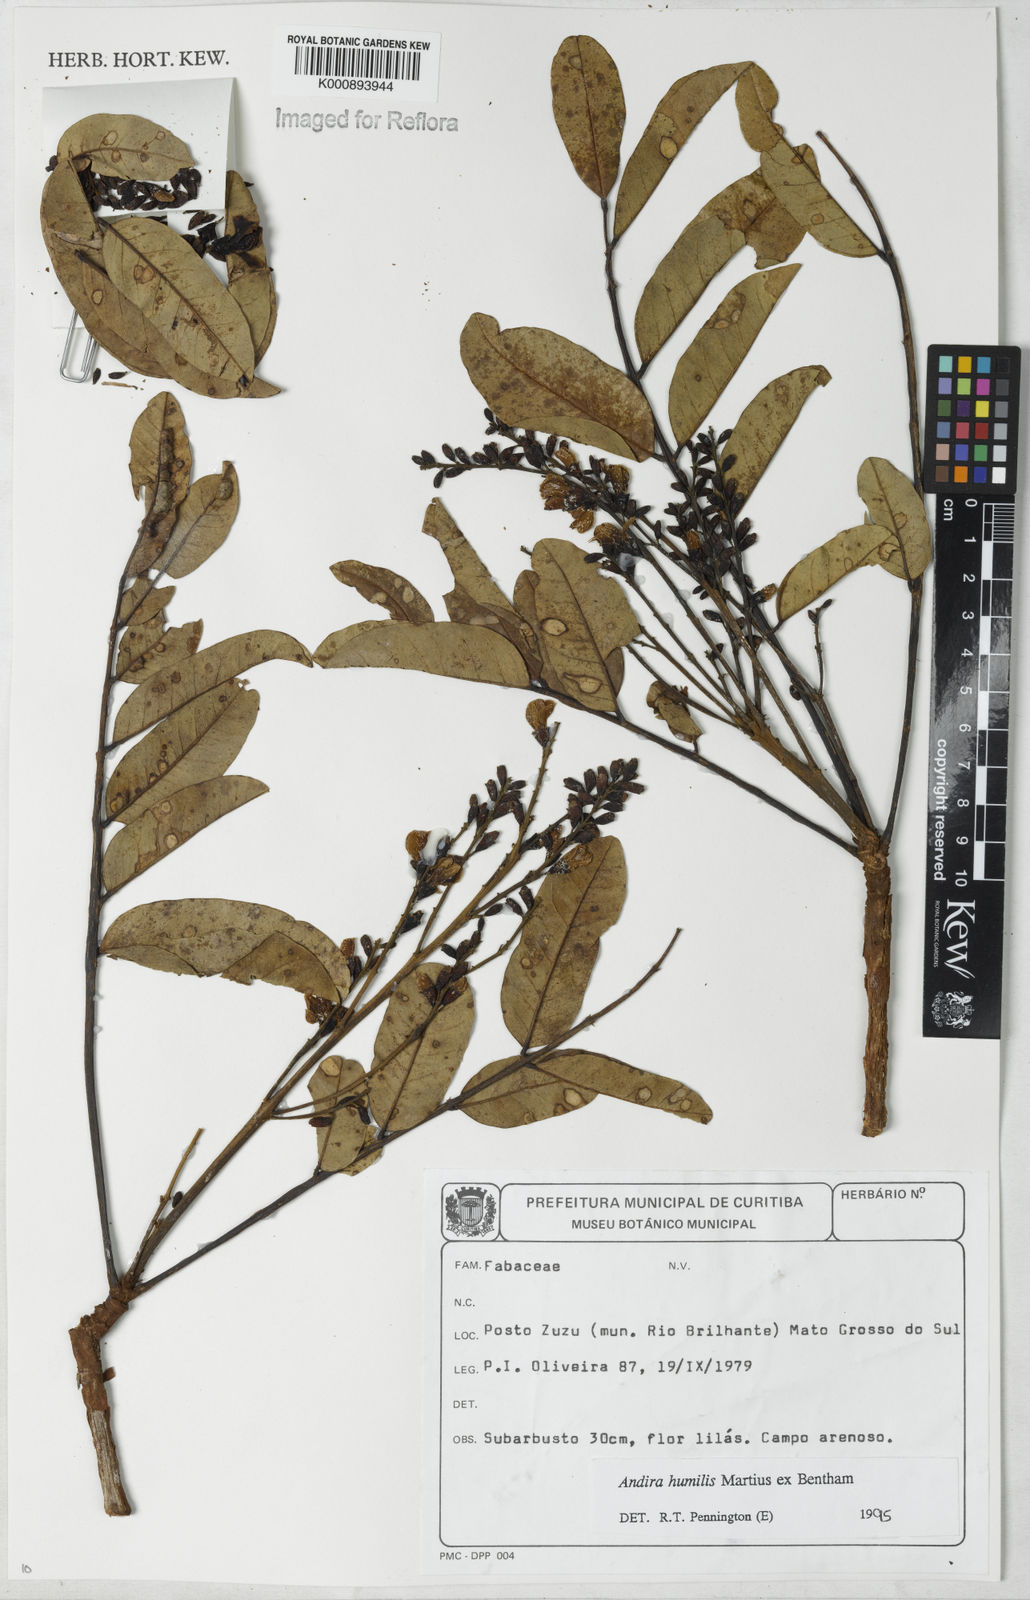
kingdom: Plantae
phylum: Tracheophyta
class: Magnoliopsida
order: Fabales
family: Fabaceae
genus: Andira
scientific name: Andira humilis
